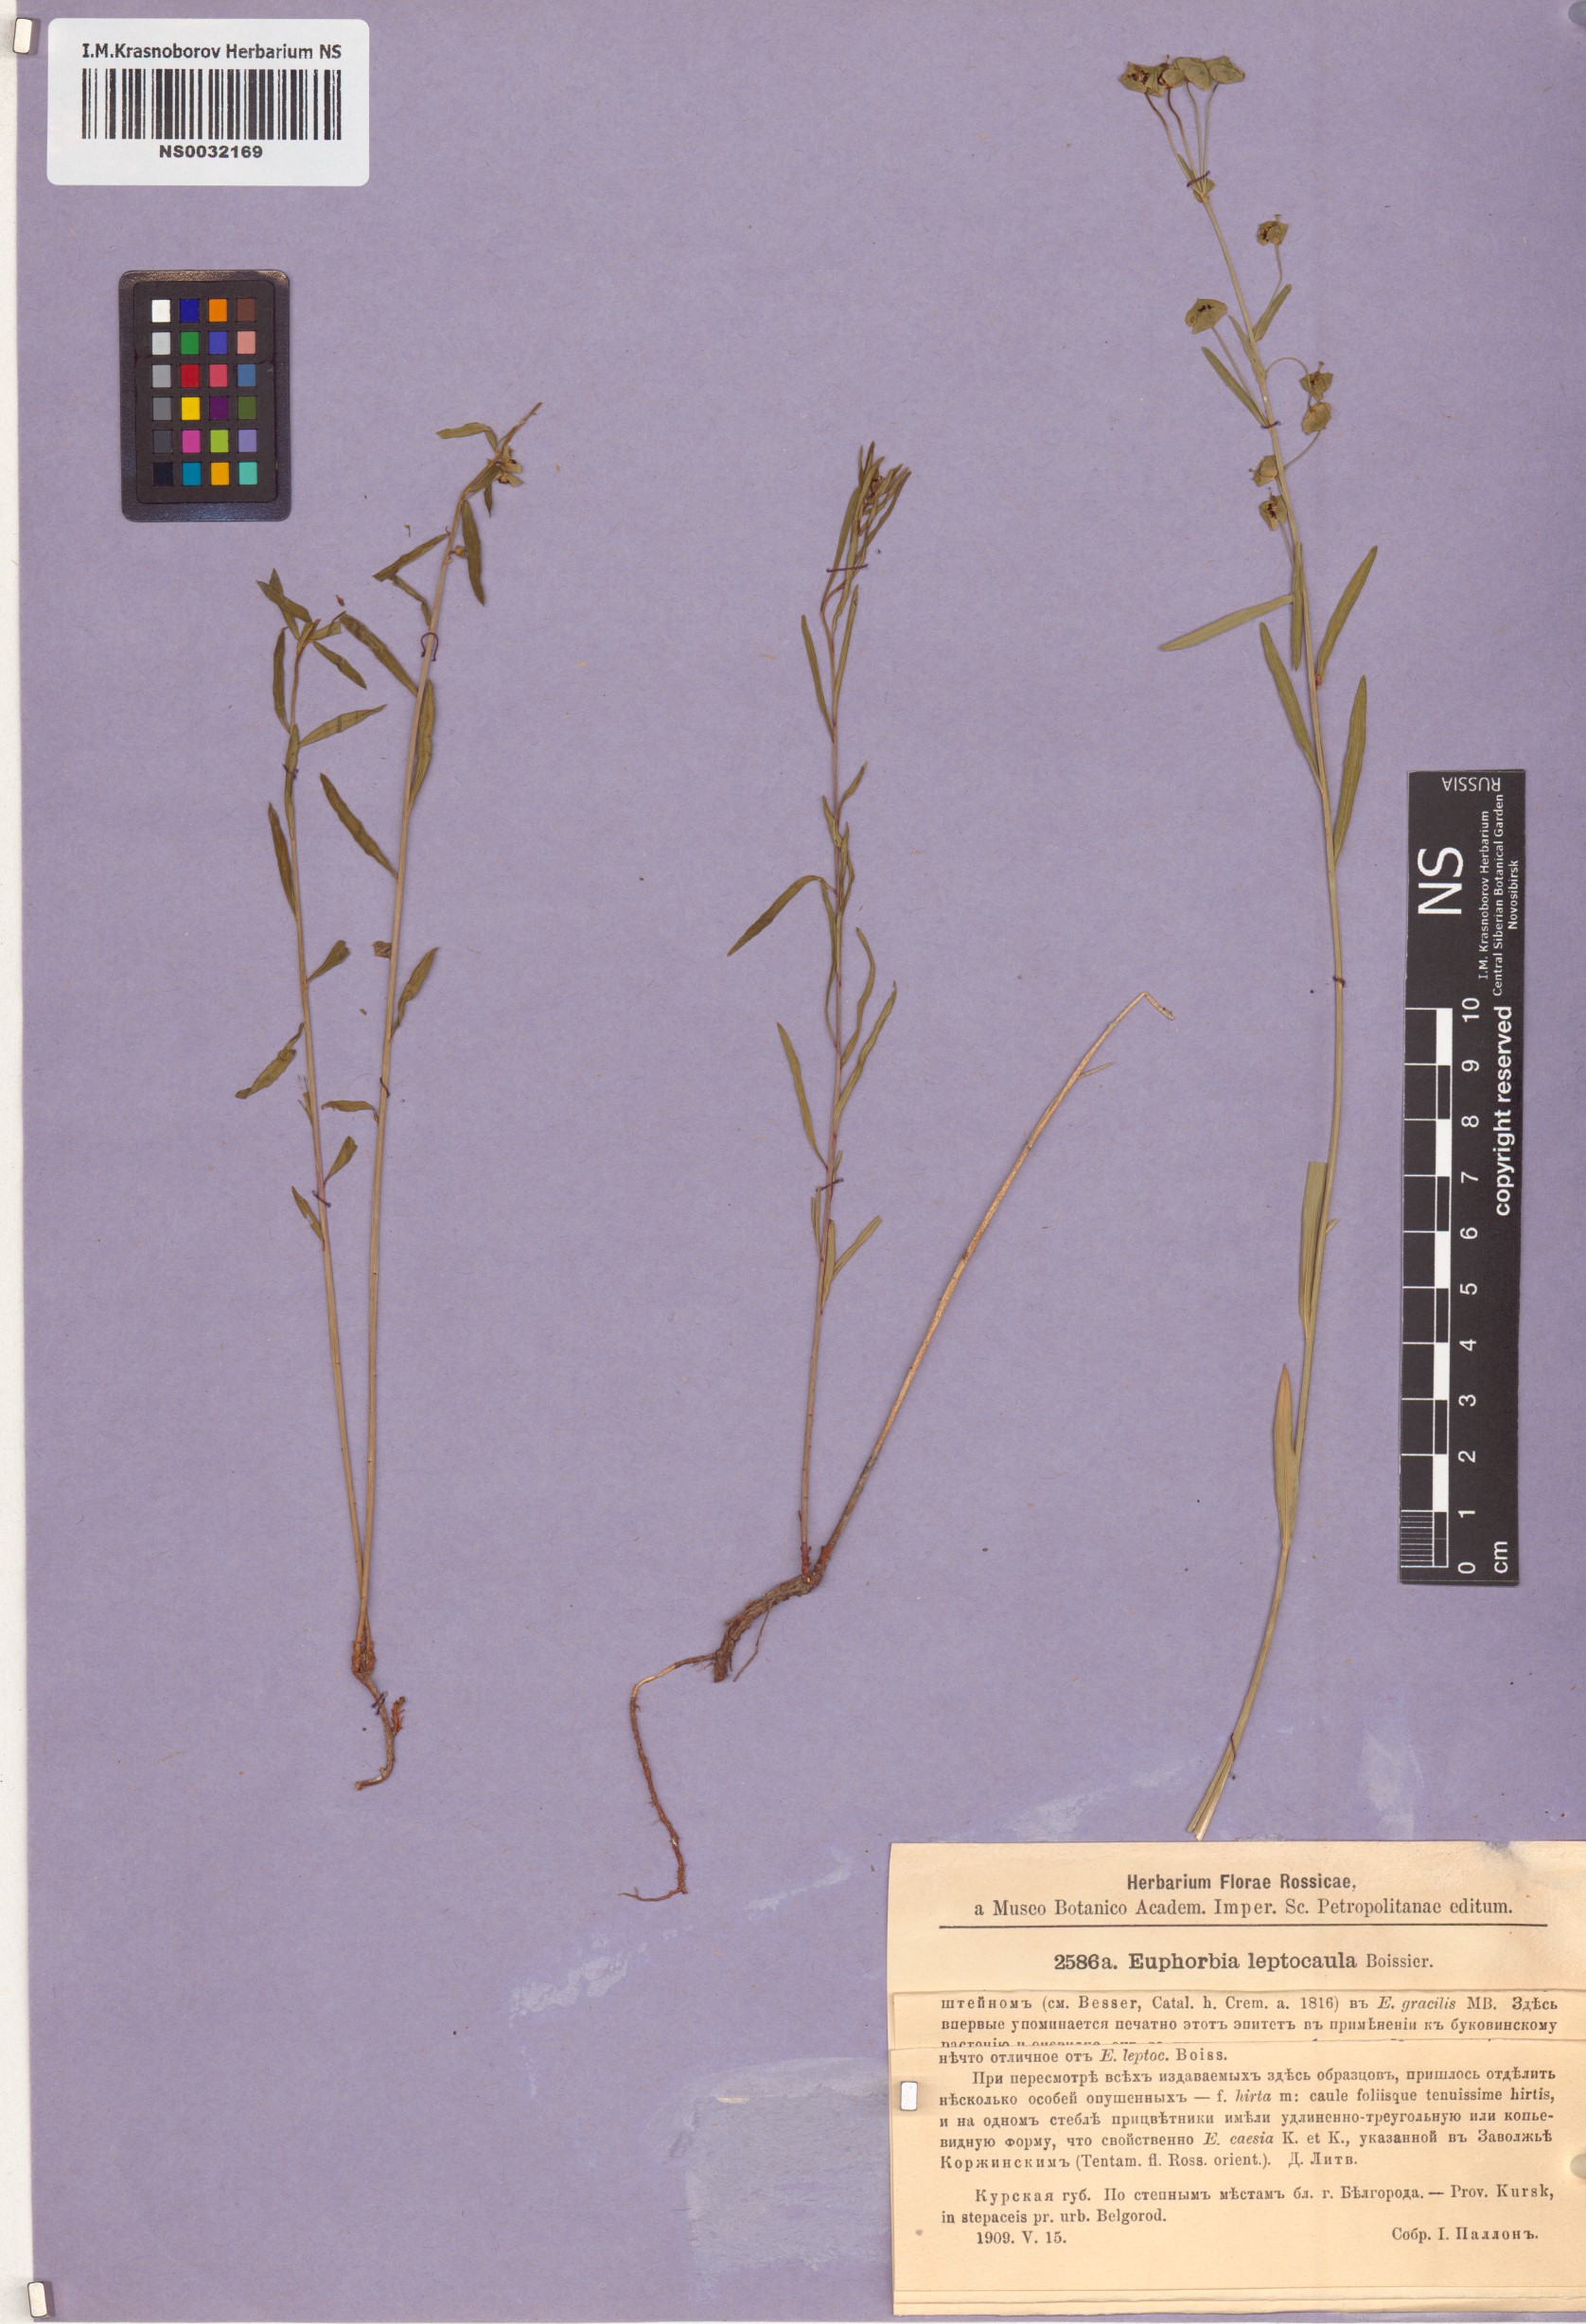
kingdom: Plantae
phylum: Tracheophyta
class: Magnoliopsida
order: Malpighiales
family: Euphorbiaceae
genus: Euphorbia
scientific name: Euphorbia leptocaula
